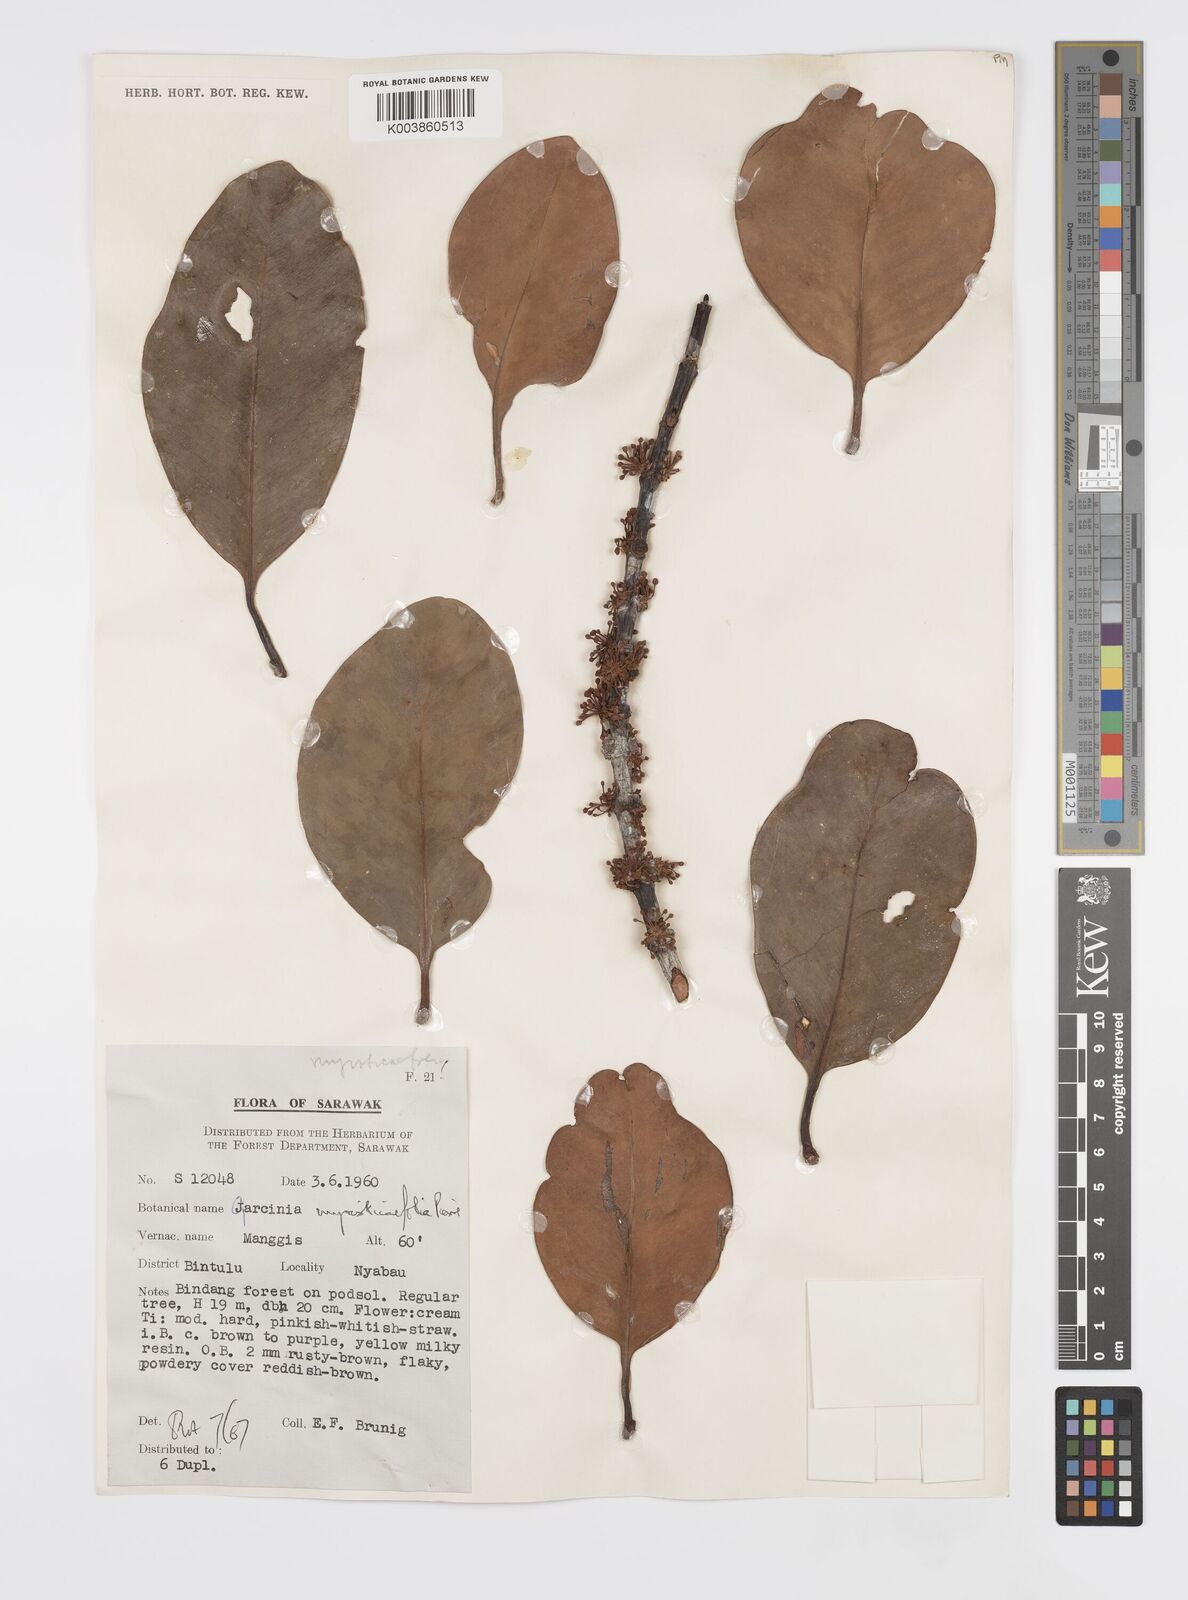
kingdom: Plantae
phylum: Tracheophyta
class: Magnoliopsida
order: Malpighiales
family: Clusiaceae
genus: Garcinia
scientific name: Garcinia myristicifolia
